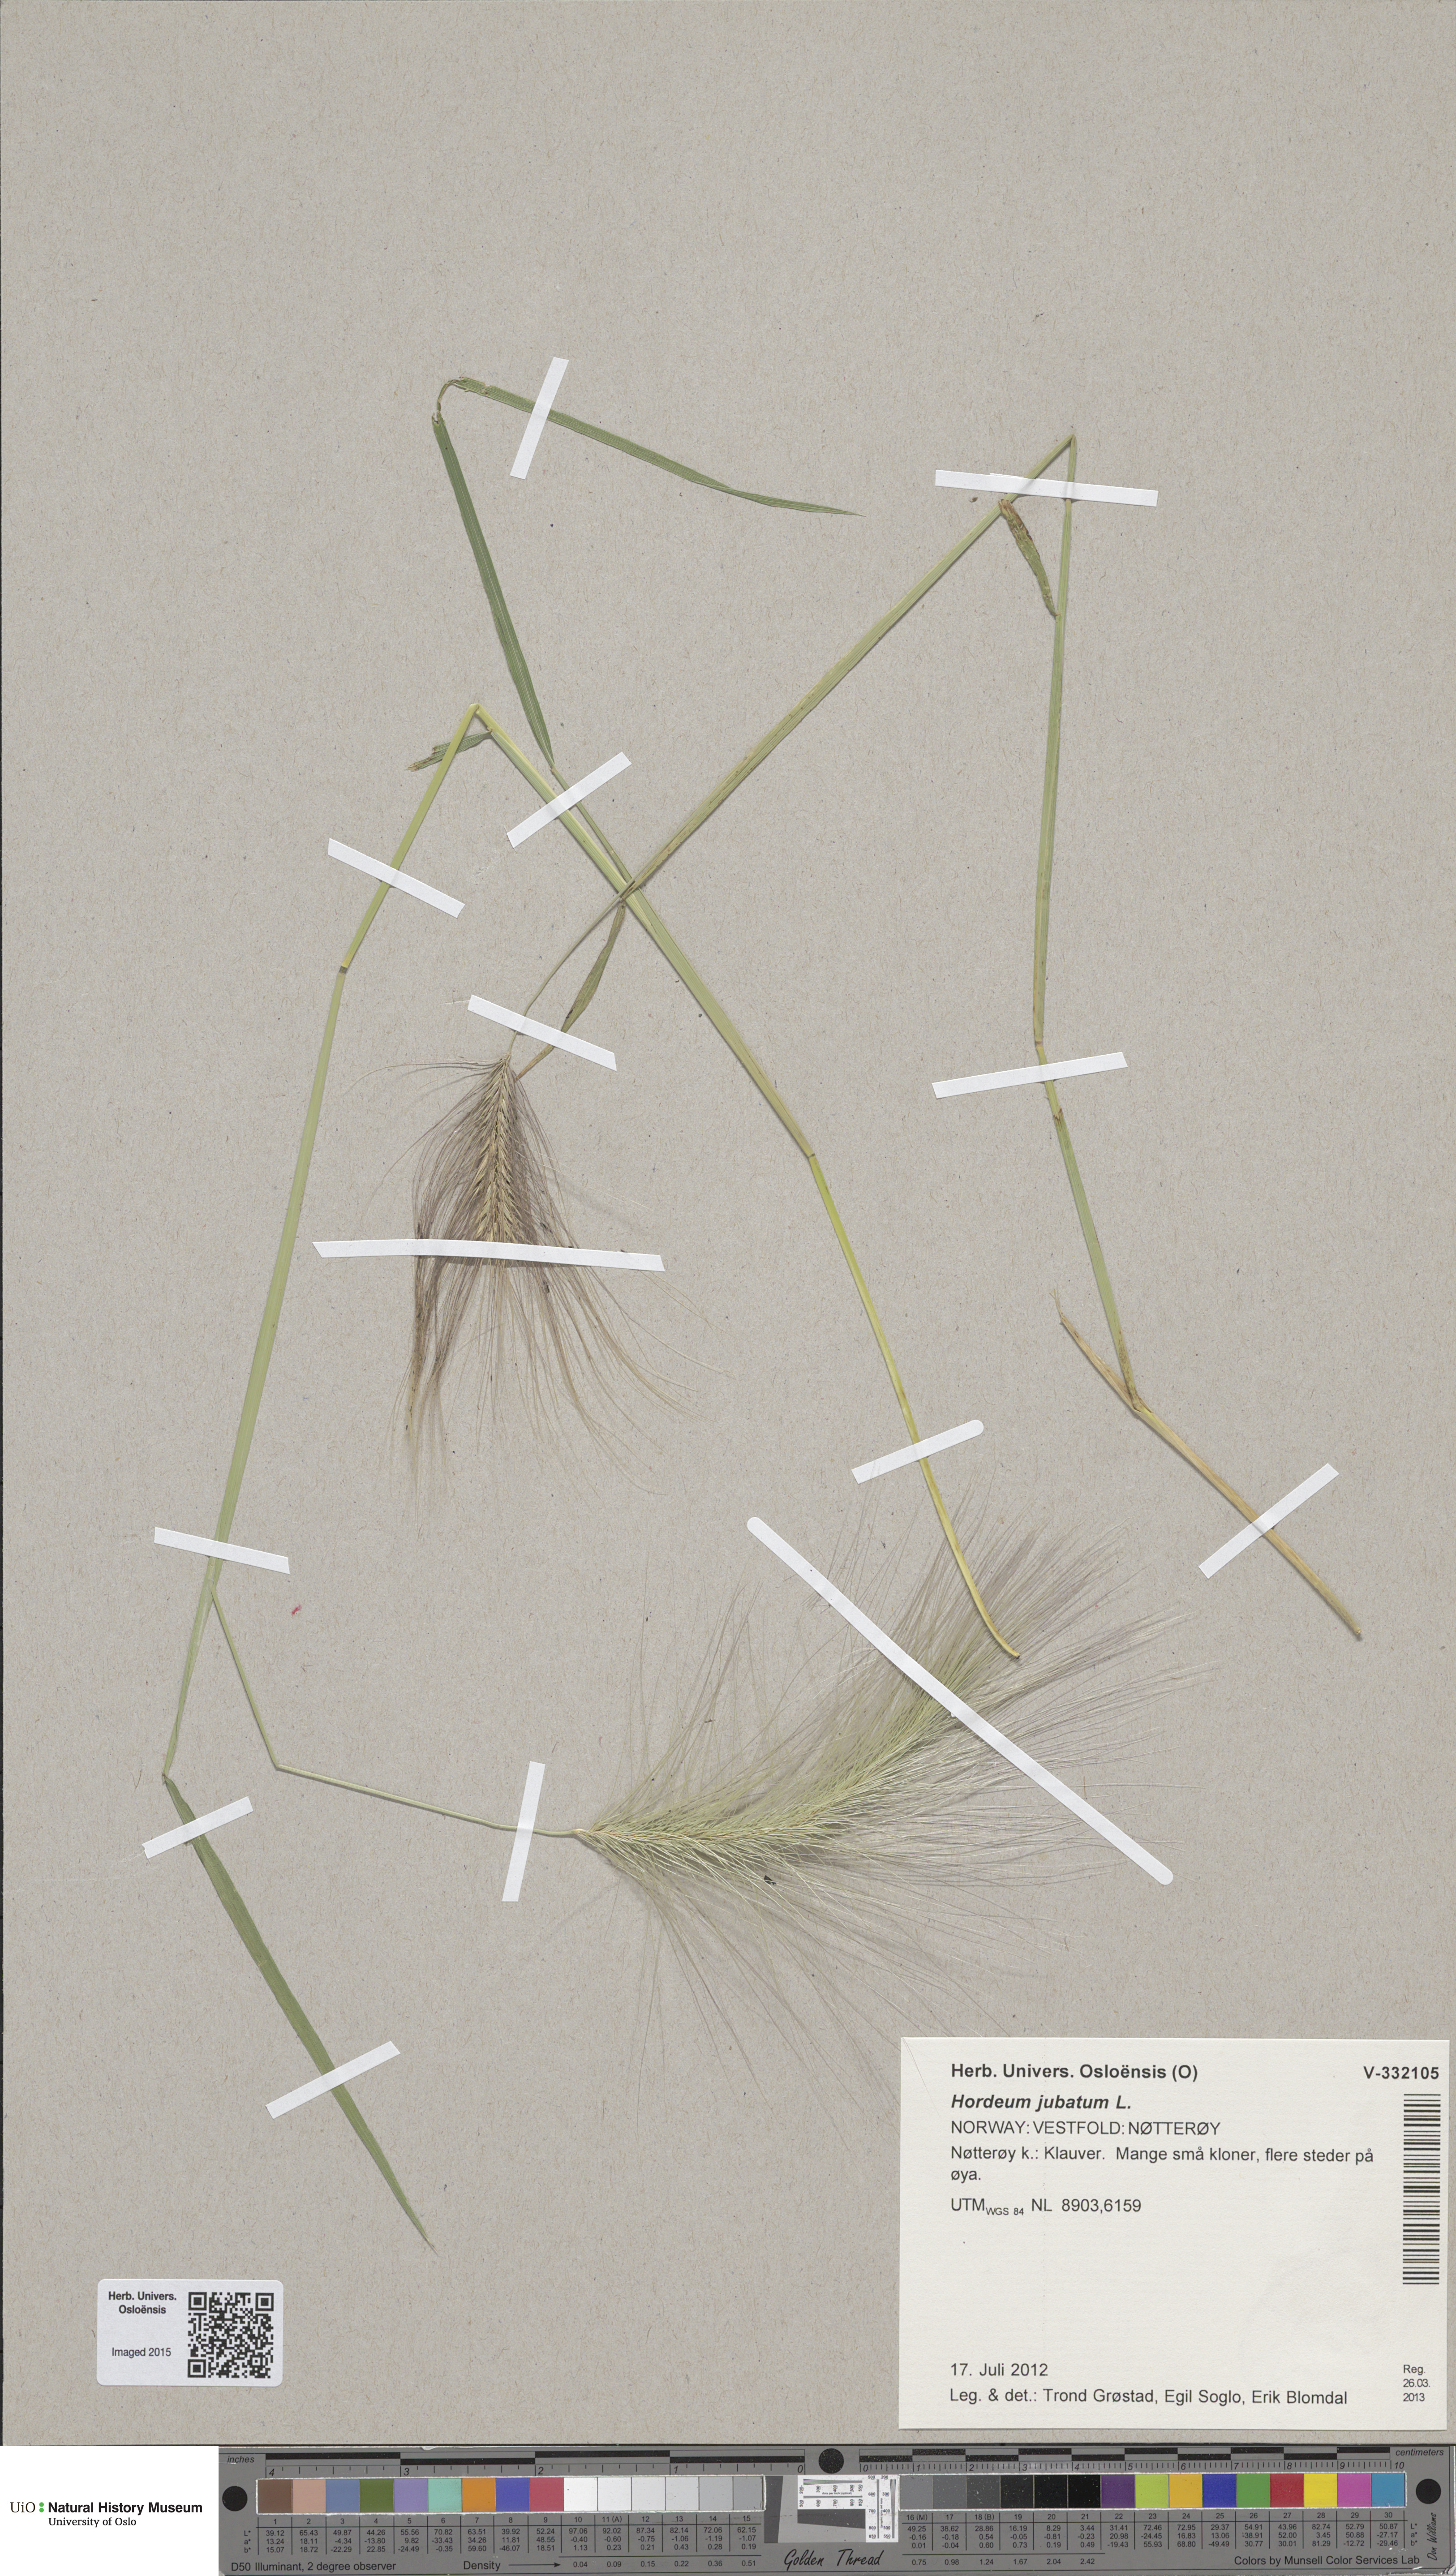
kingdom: Plantae
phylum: Tracheophyta
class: Liliopsida
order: Poales
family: Poaceae
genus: Hordeum
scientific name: Hordeum jubatum
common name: Foxtail barley
